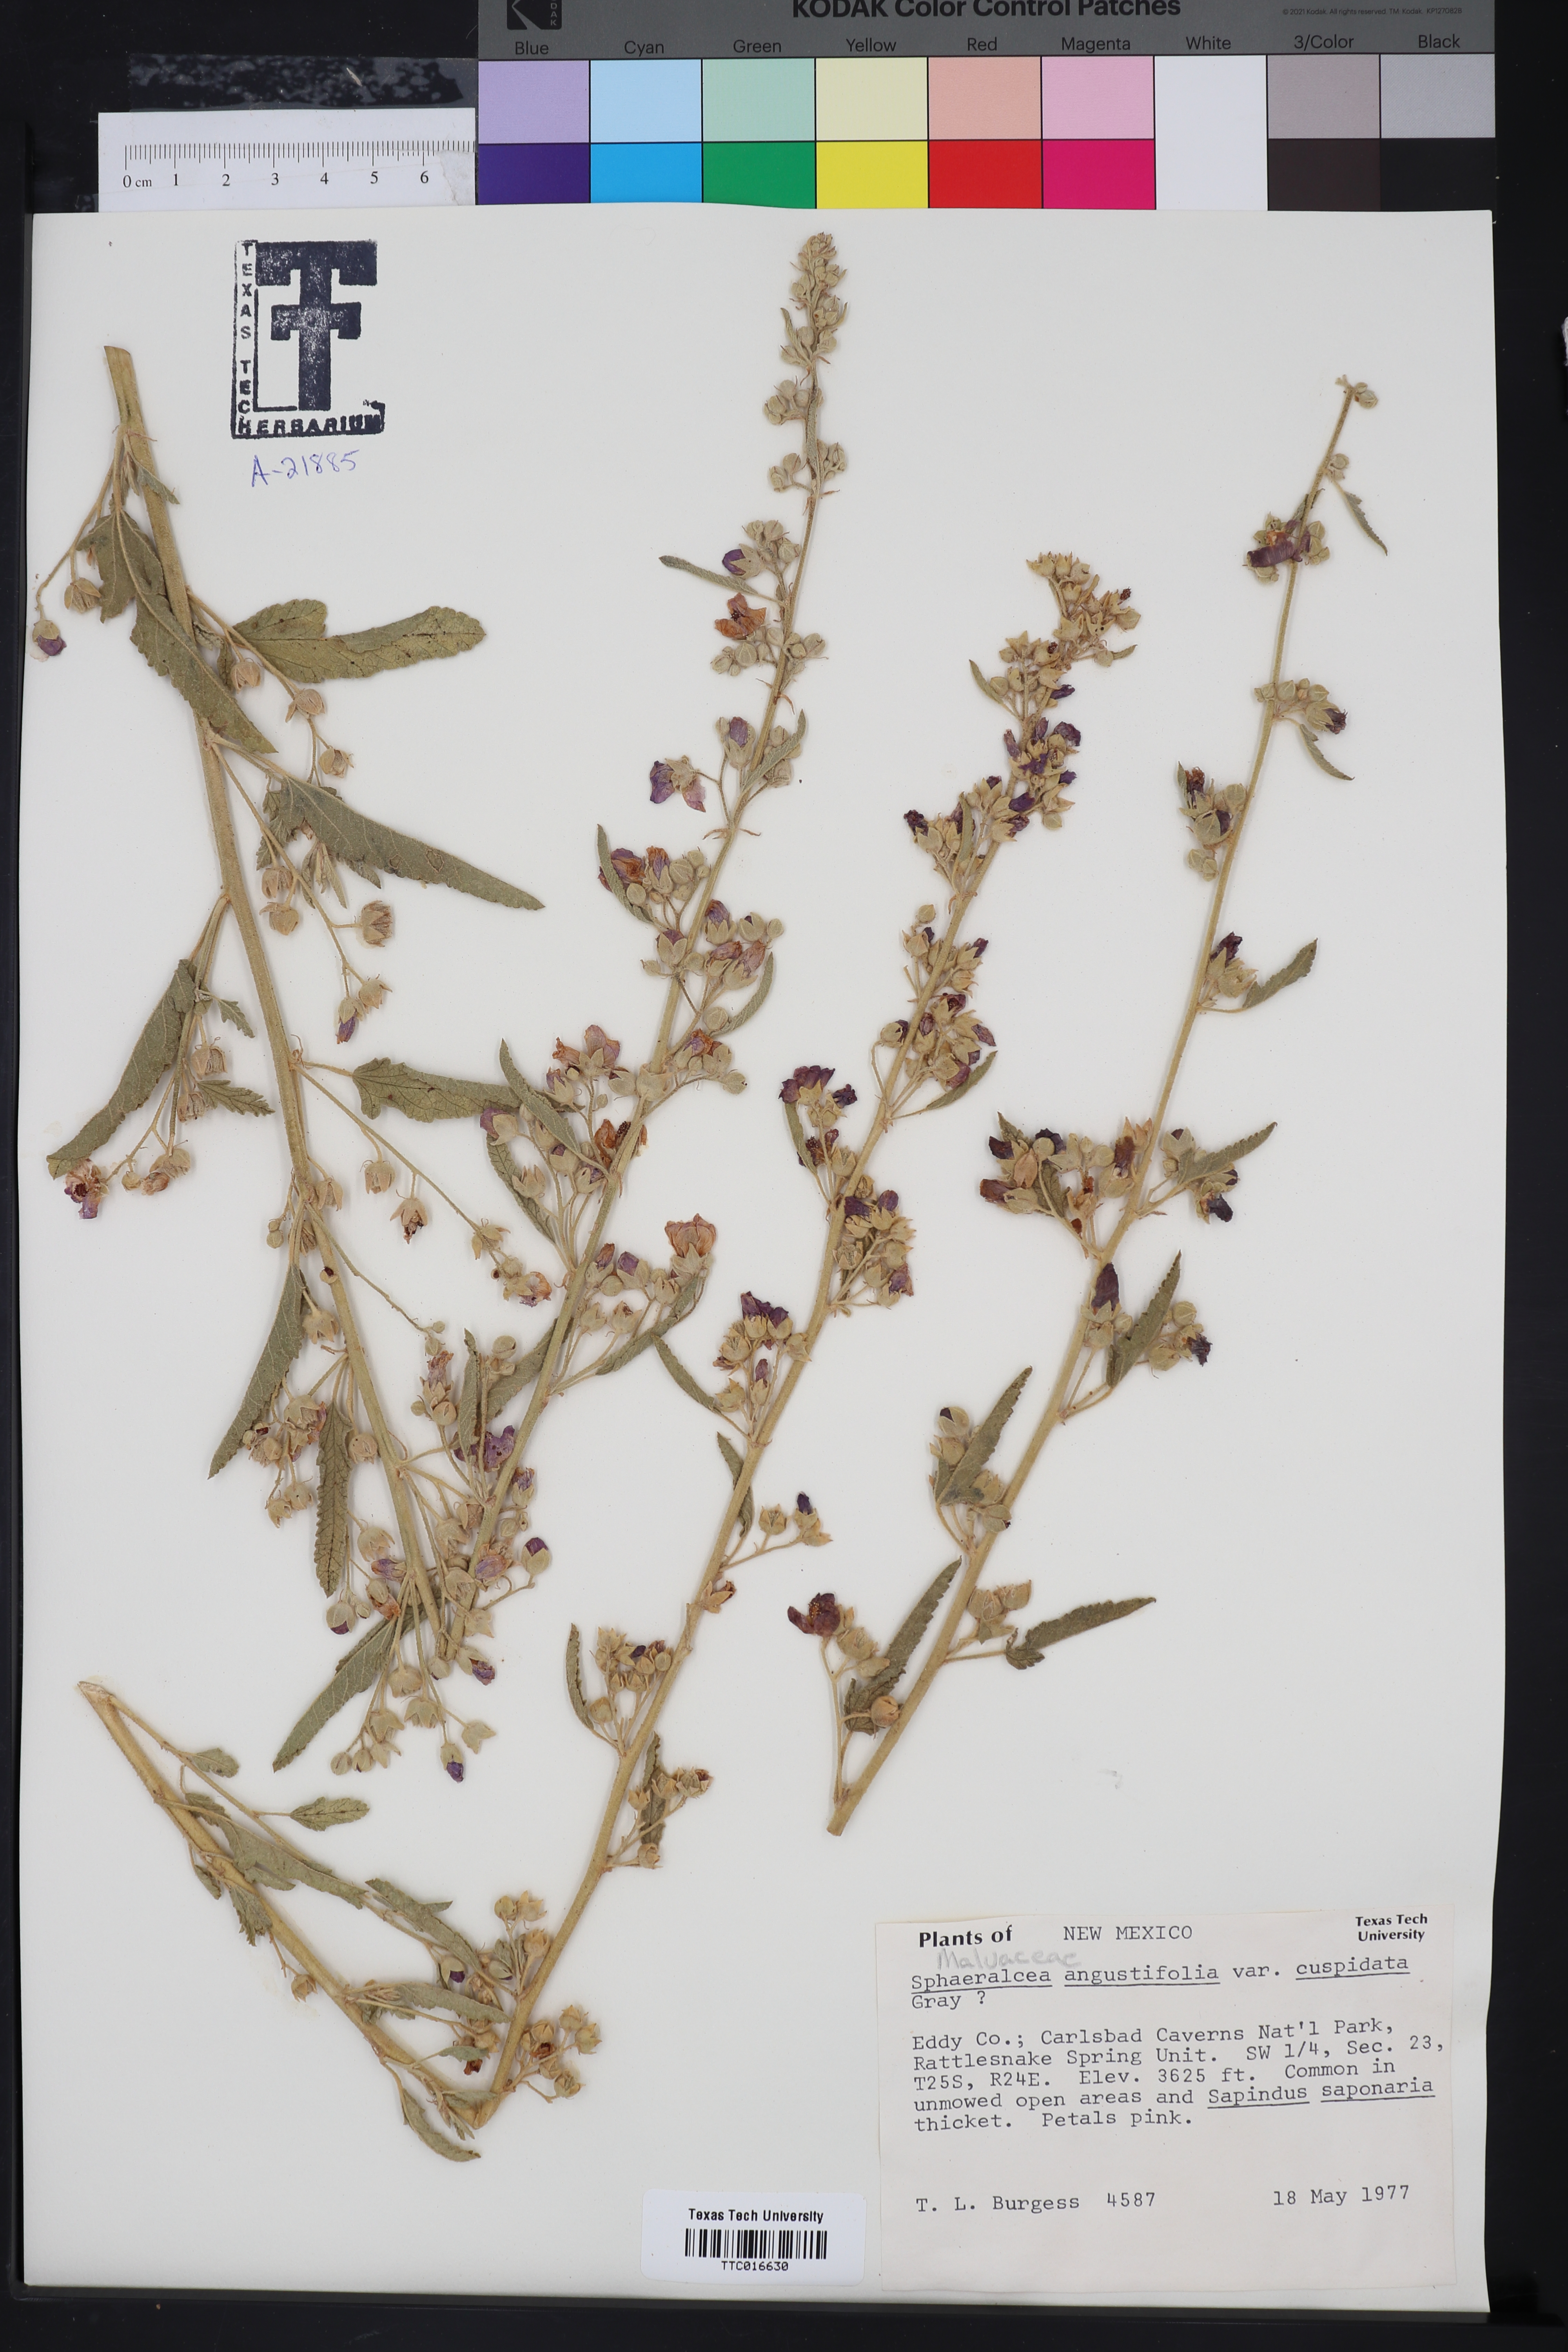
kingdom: Plantae
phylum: Tracheophyta
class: Magnoliopsida
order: Malvales
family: Malvaceae
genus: Sphaeralcea
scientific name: Sphaeralcea angustifolia
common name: Copper globe-mallow
